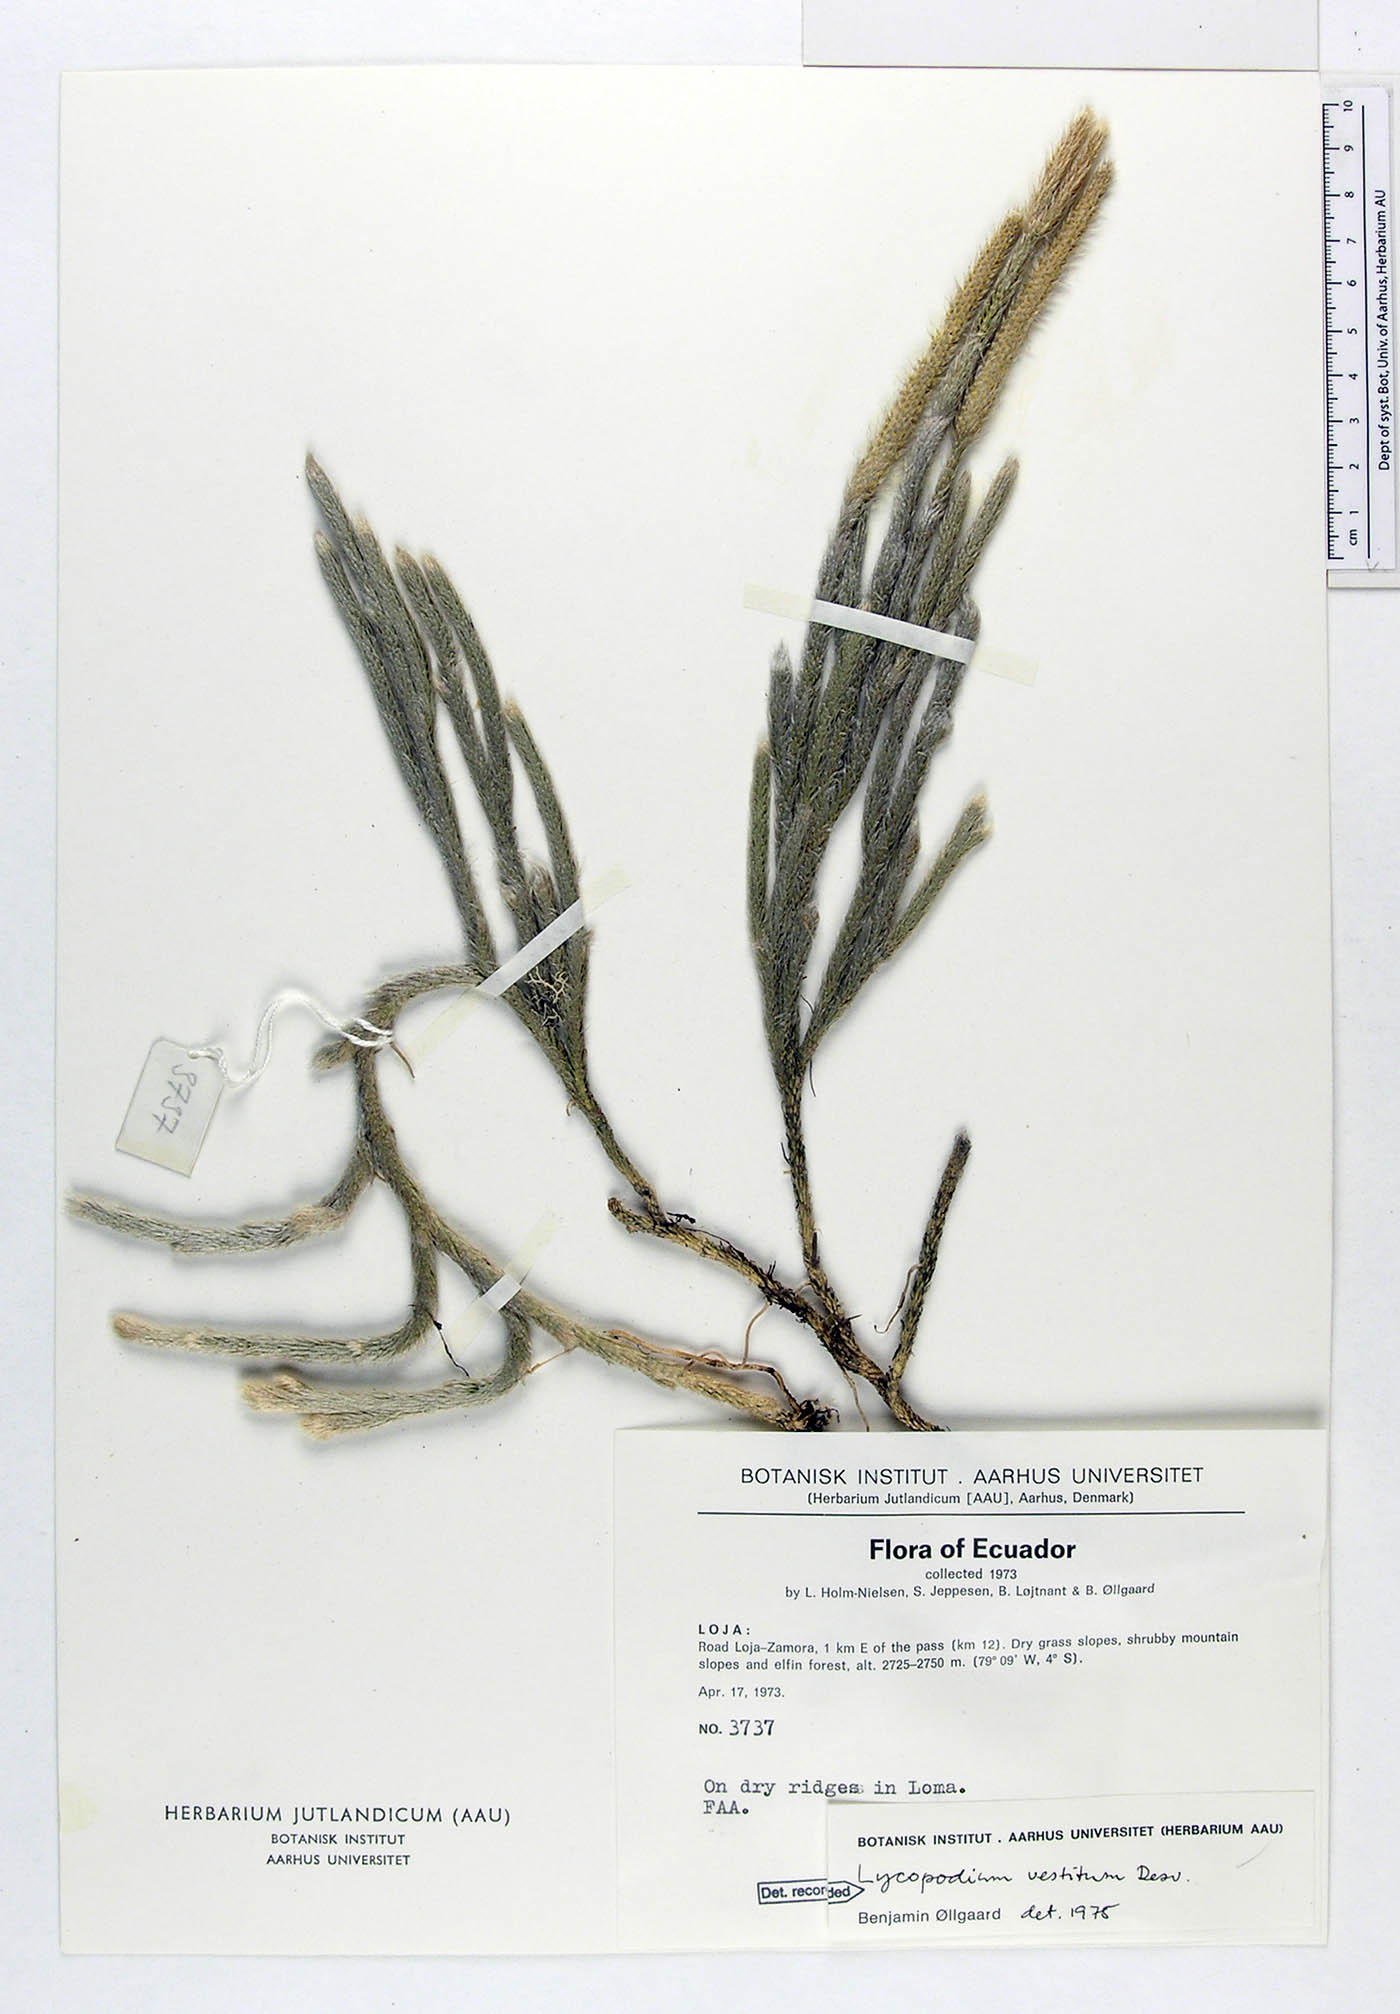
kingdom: Plantae
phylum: Tracheophyta
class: Lycopodiopsida
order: Lycopodiales
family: Lycopodiaceae
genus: Lycopodium
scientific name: Lycopodium vestitum
